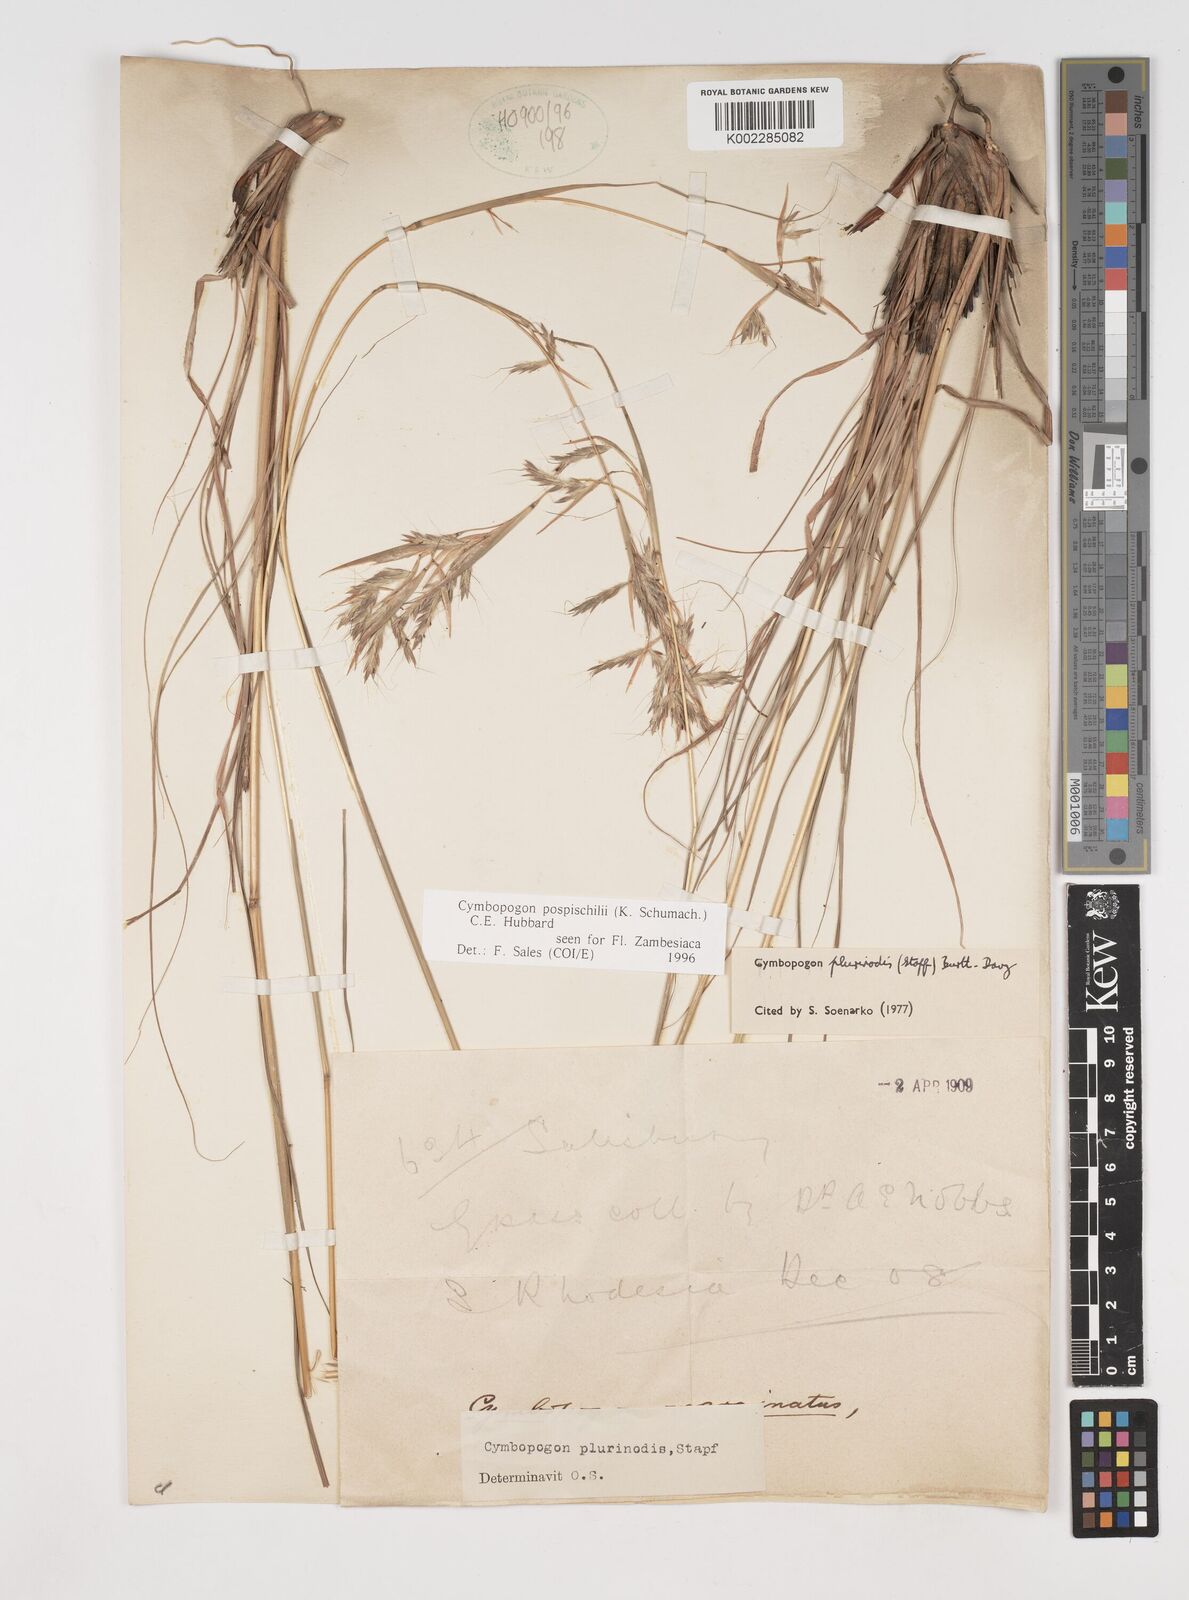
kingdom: Plantae
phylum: Tracheophyta
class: Liliopsida
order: Poales
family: Poaceae
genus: Cymbopogon
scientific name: Cymbopogon pospischilii
